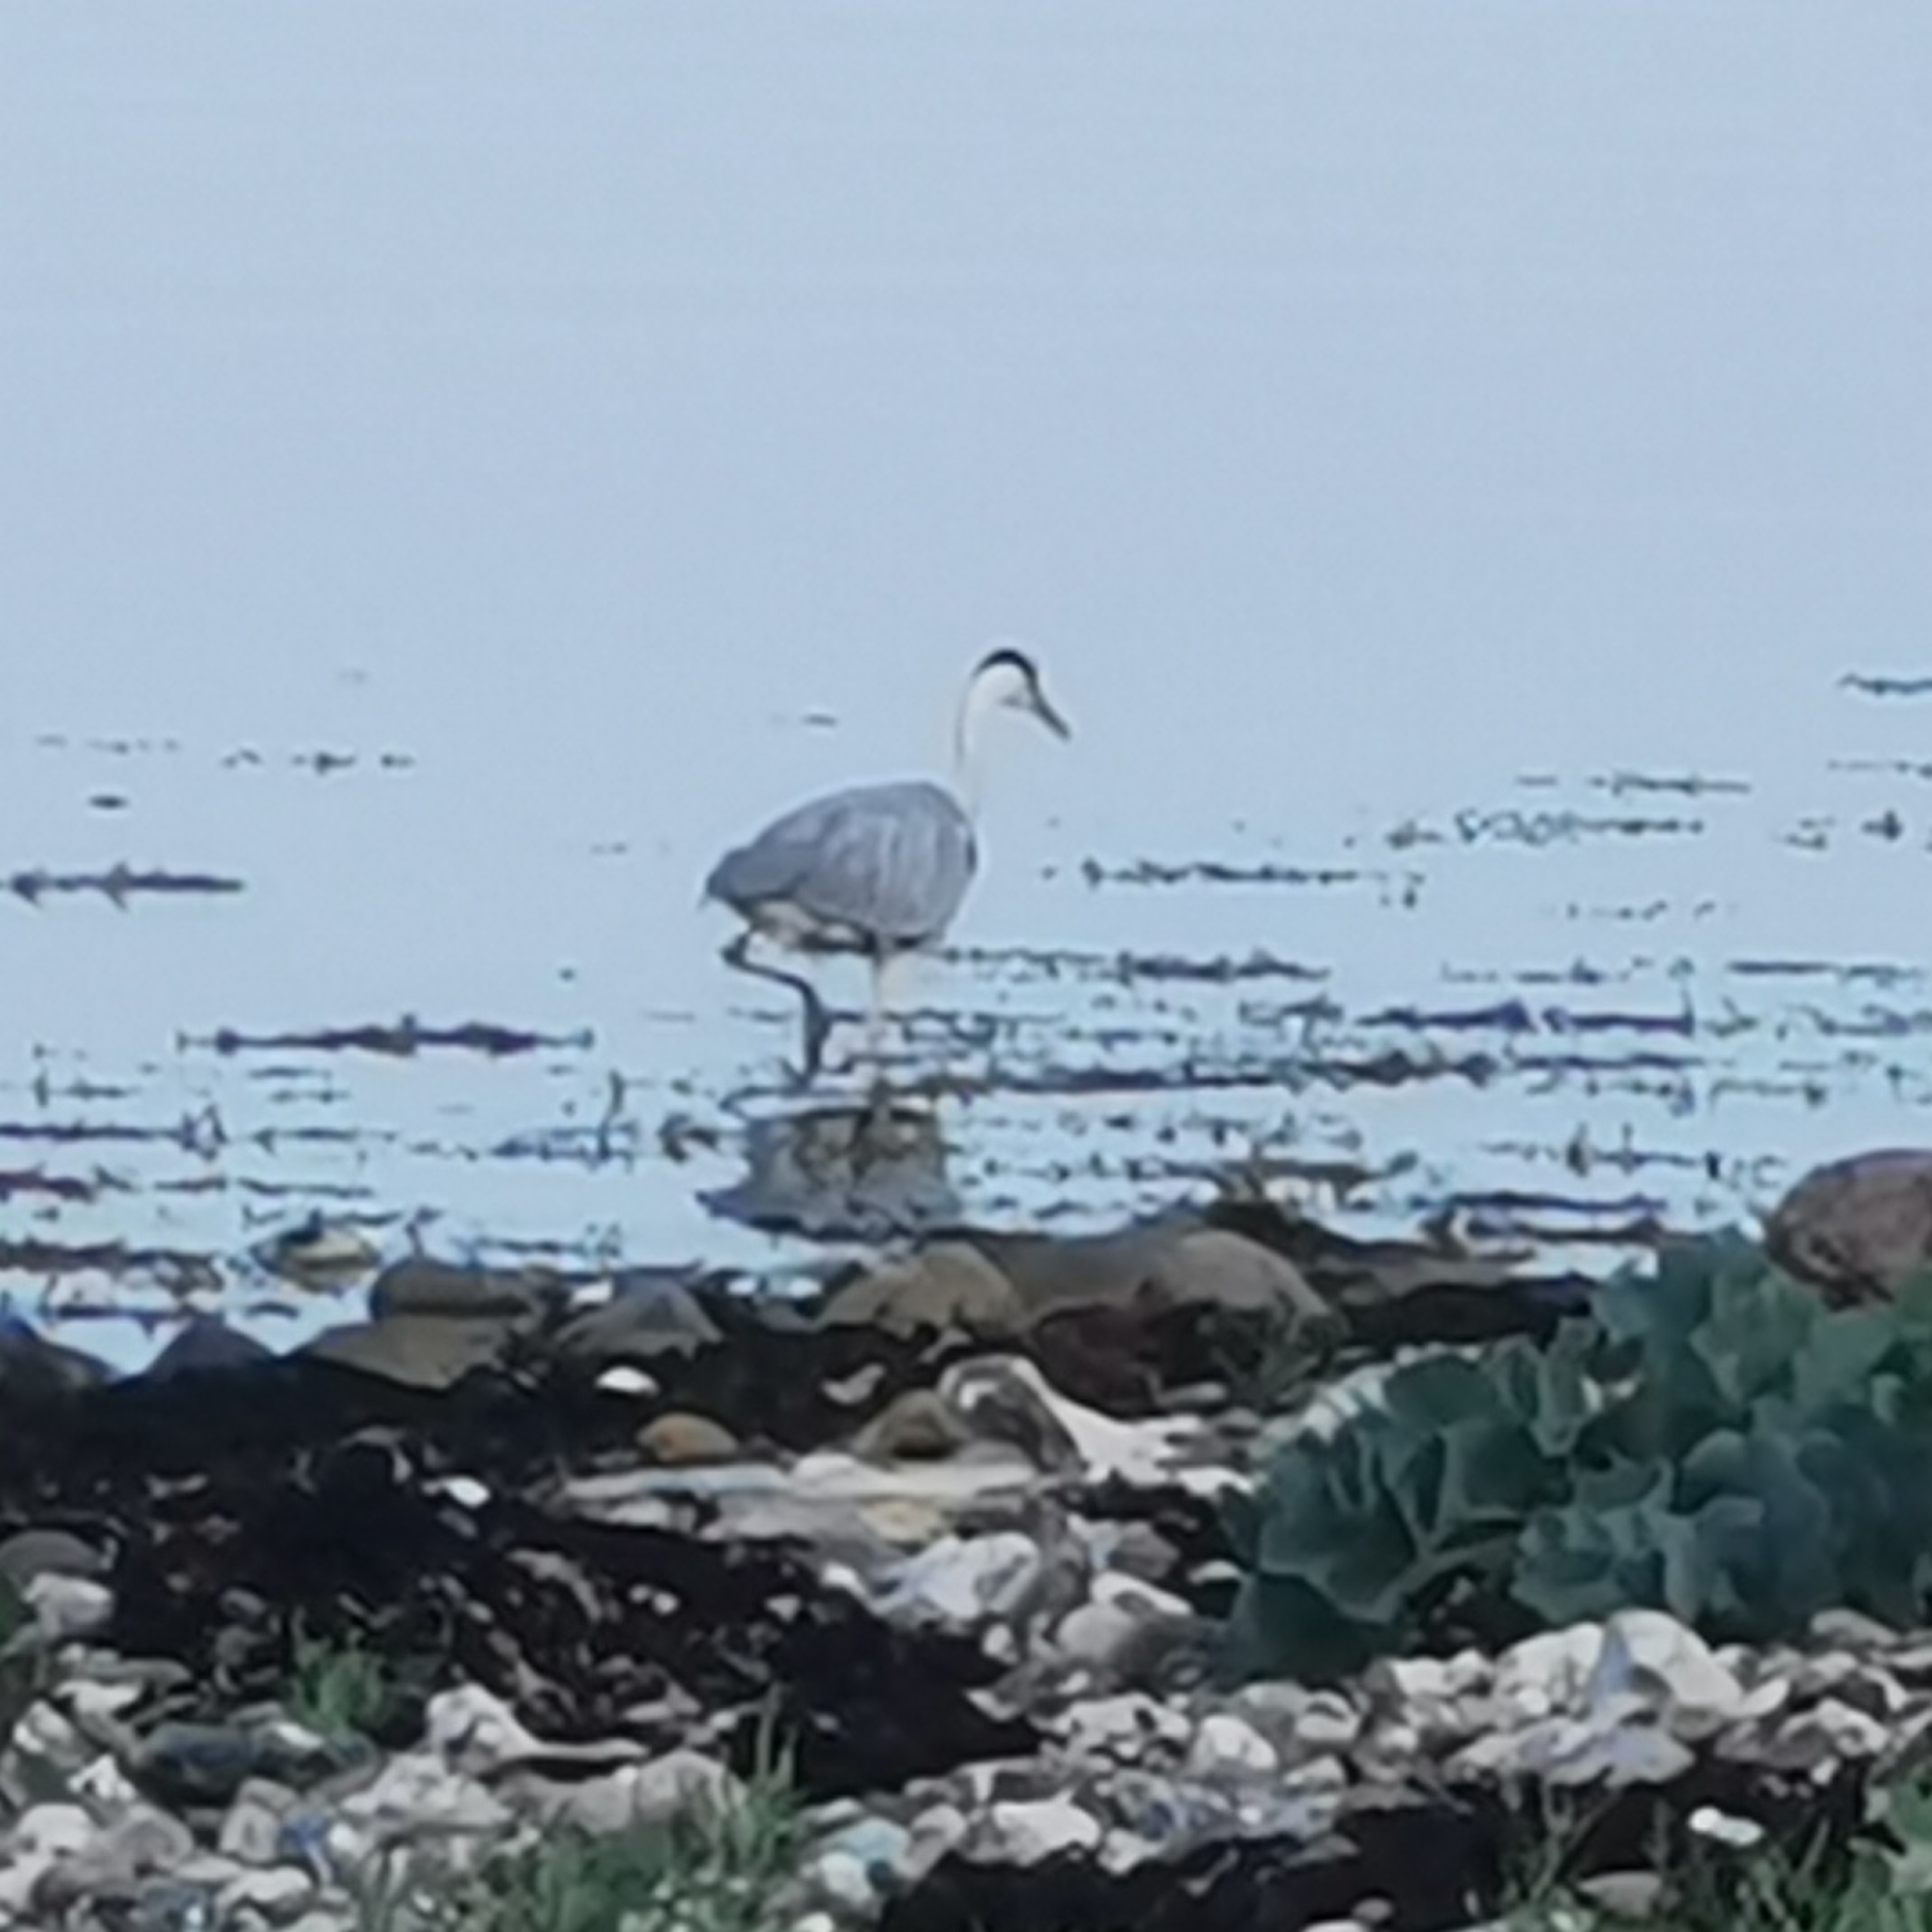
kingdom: Animalia
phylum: Chordata
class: Aves
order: Pelecaniformes
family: Ardeidae
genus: Ardea
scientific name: Ardea cinerea
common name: Fiskehejre
